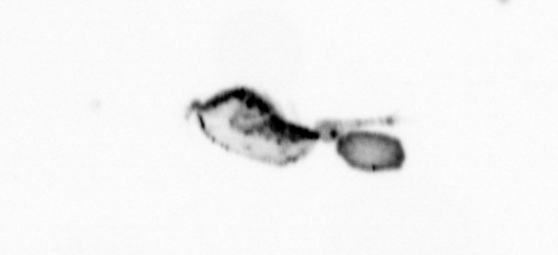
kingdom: Animalia
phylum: Arthropoda
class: Copepoda
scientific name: Copepoda
